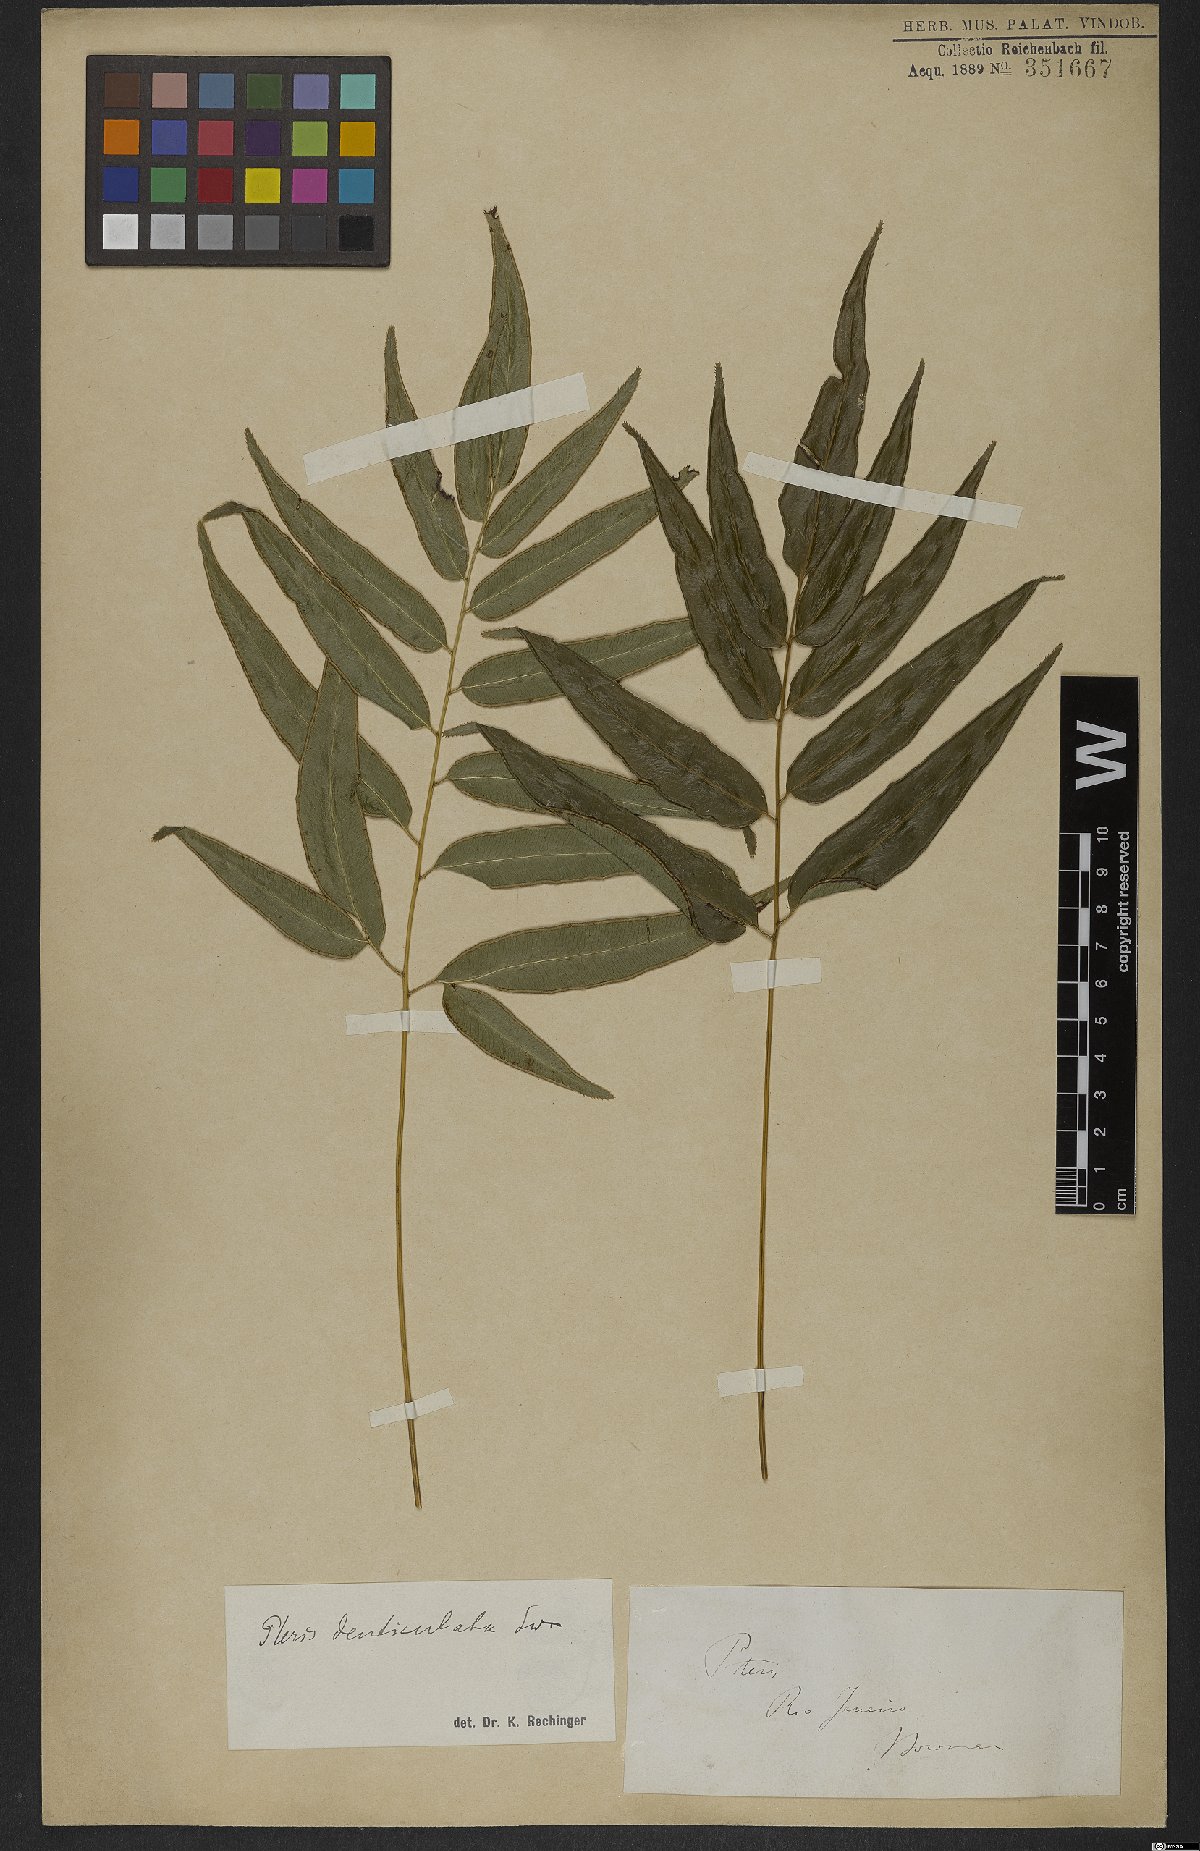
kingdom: Plantae
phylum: Tracheophyta
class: Polypodiopsida
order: Polypodiales
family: Pteridaceae
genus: Pteris
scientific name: Pteris denticulata
